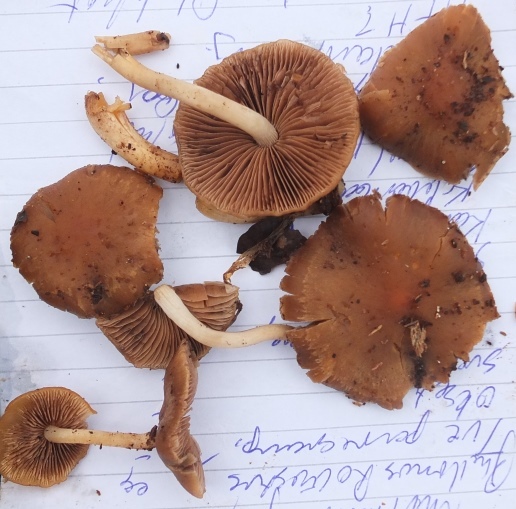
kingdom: Fungi
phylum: Basidiomycota
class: Agaricomycetes
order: Agaricales
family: Psathyrellaceae
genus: Psathyrella
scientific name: Psathyrella piluliformis
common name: lysstokket mørkhat
